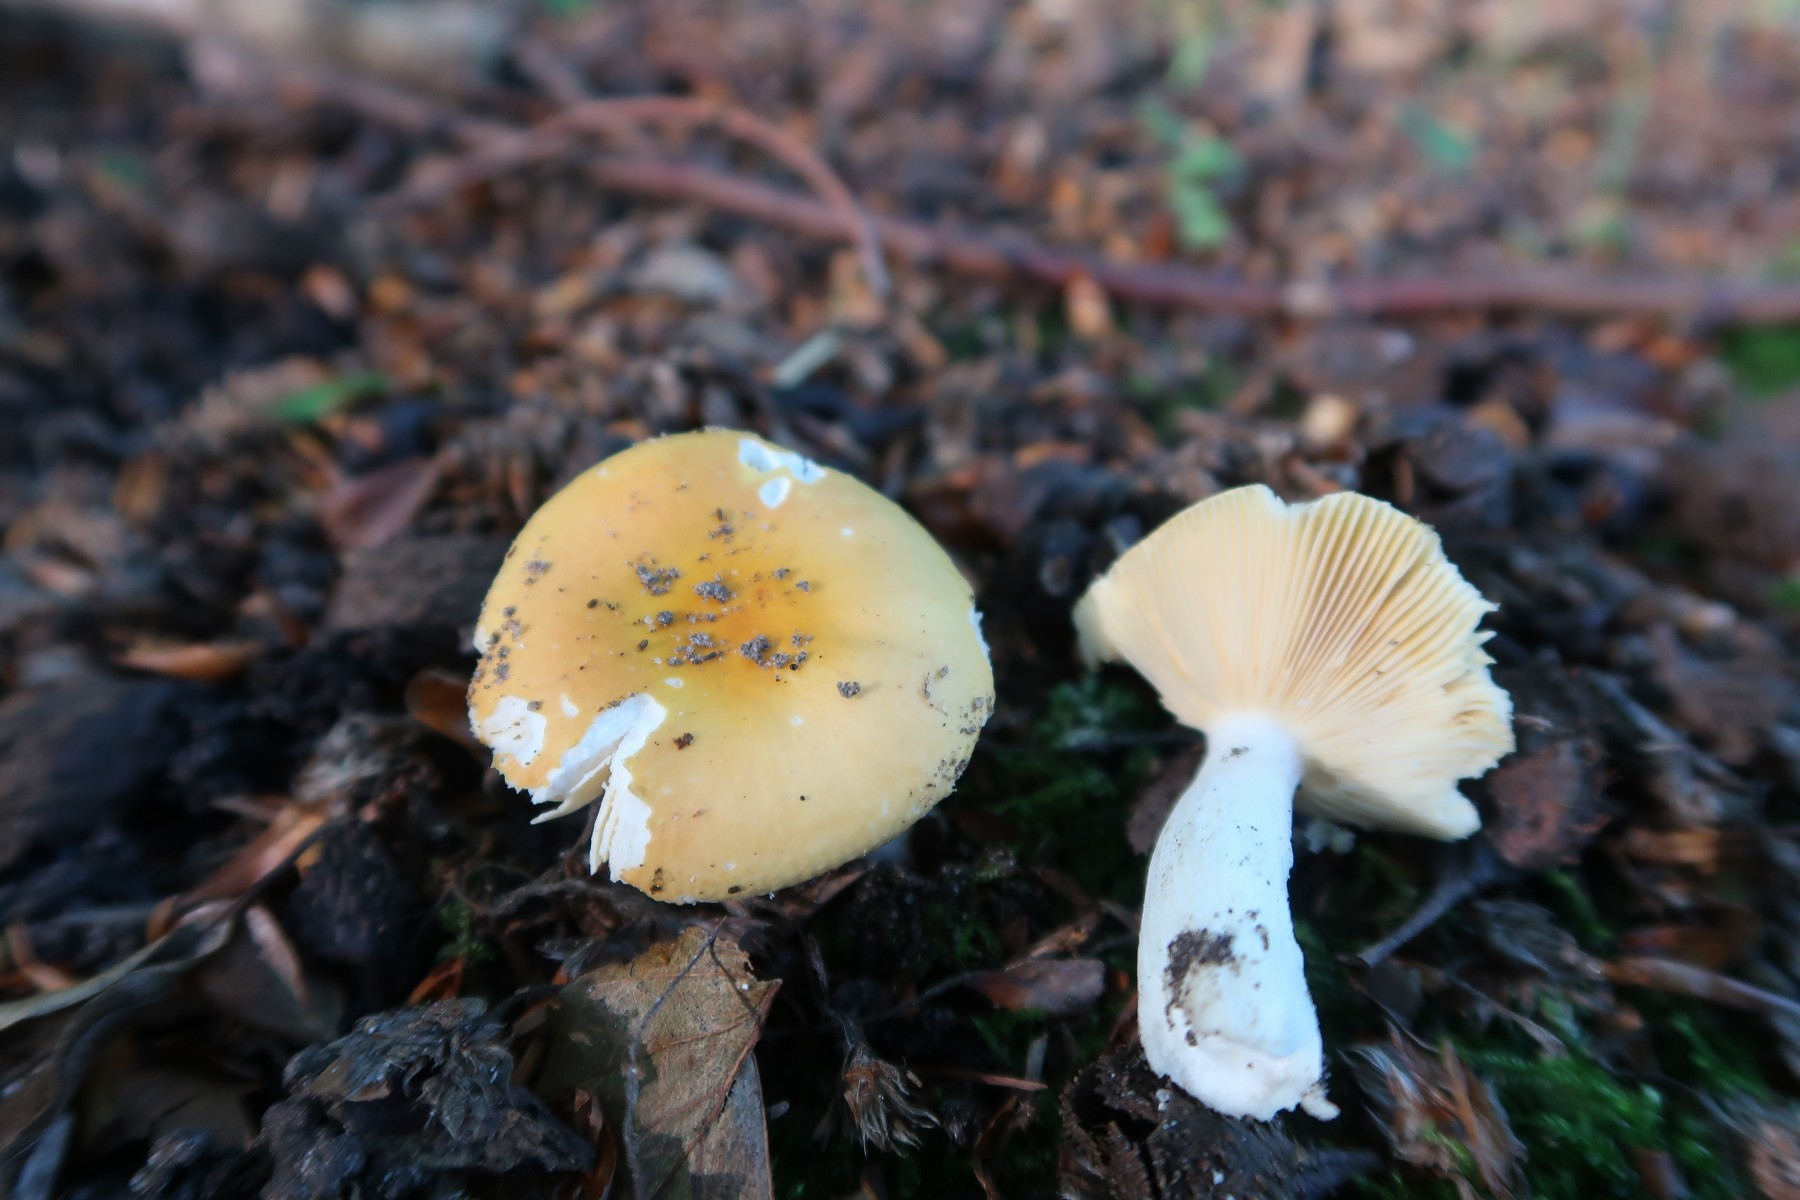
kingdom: Fungi
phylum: Basidiomycota
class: Agaricomycetes
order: Russulales
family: Russulaceae
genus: Russula
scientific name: Russula risigallina
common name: abrikos-skørhat
